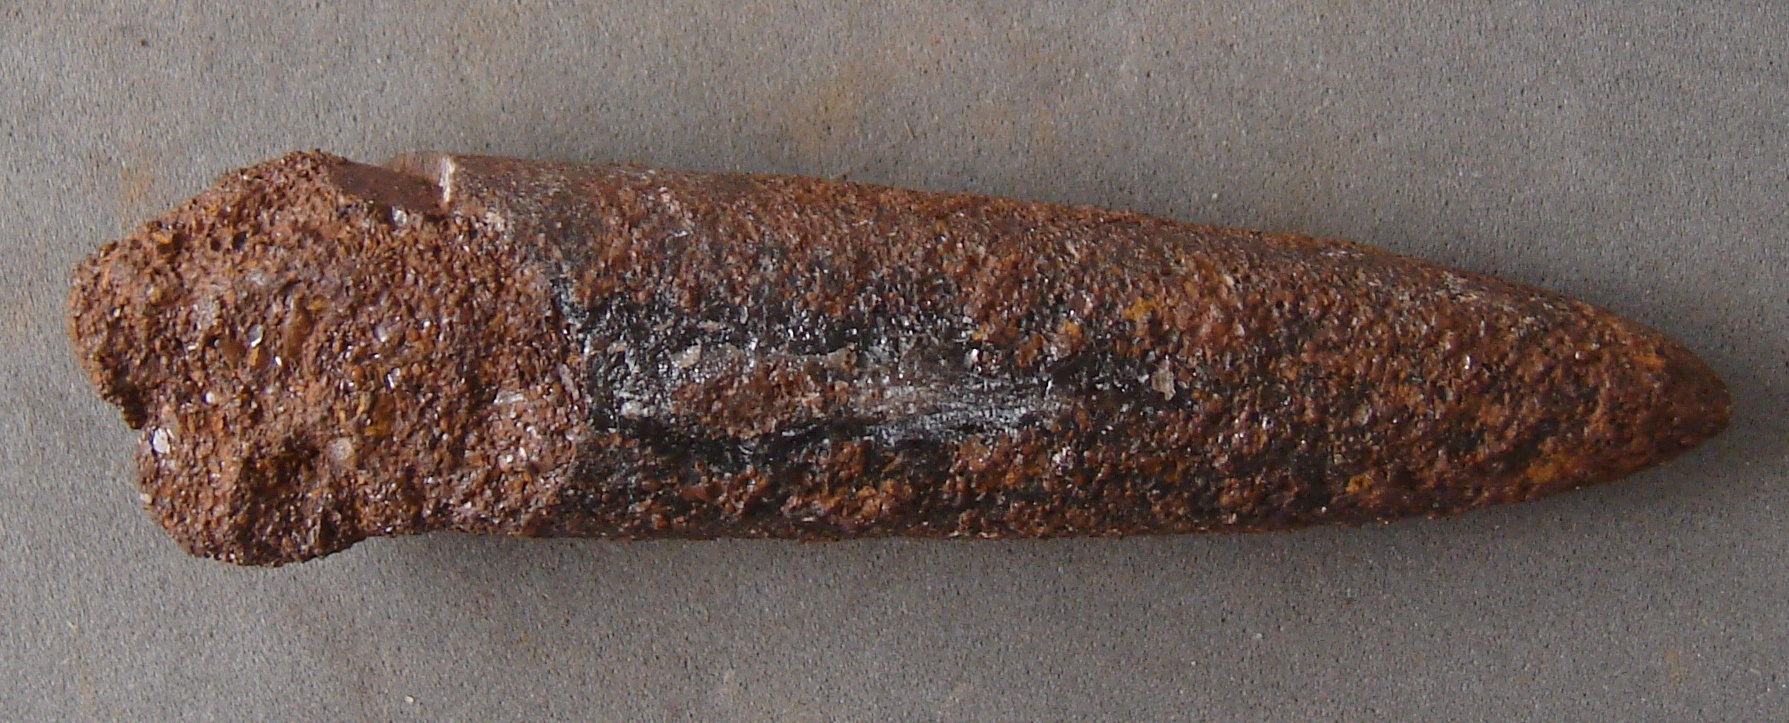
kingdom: Animalia
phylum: Mollusca
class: Cephalopoda
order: Belemnitida
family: Passaloteuthidae
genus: Brevibelus
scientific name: Brevibelus breviformis
